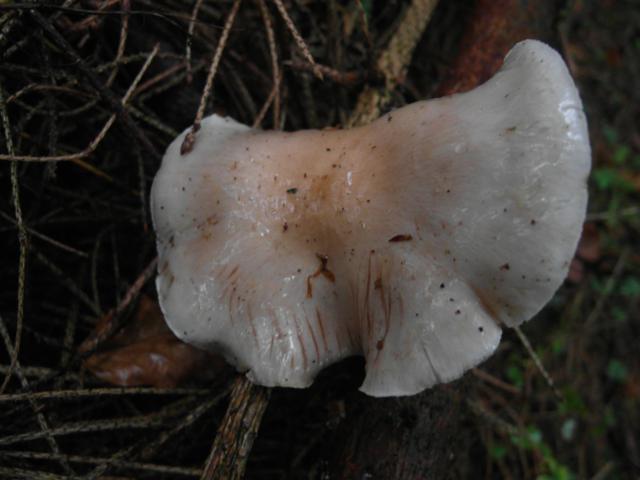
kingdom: Fungi
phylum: Basidiomycota
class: Agaricomycetes
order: Agaricales
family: Strophariaceae
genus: Pholiota
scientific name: Pholiota lenta
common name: løv-skælhat
